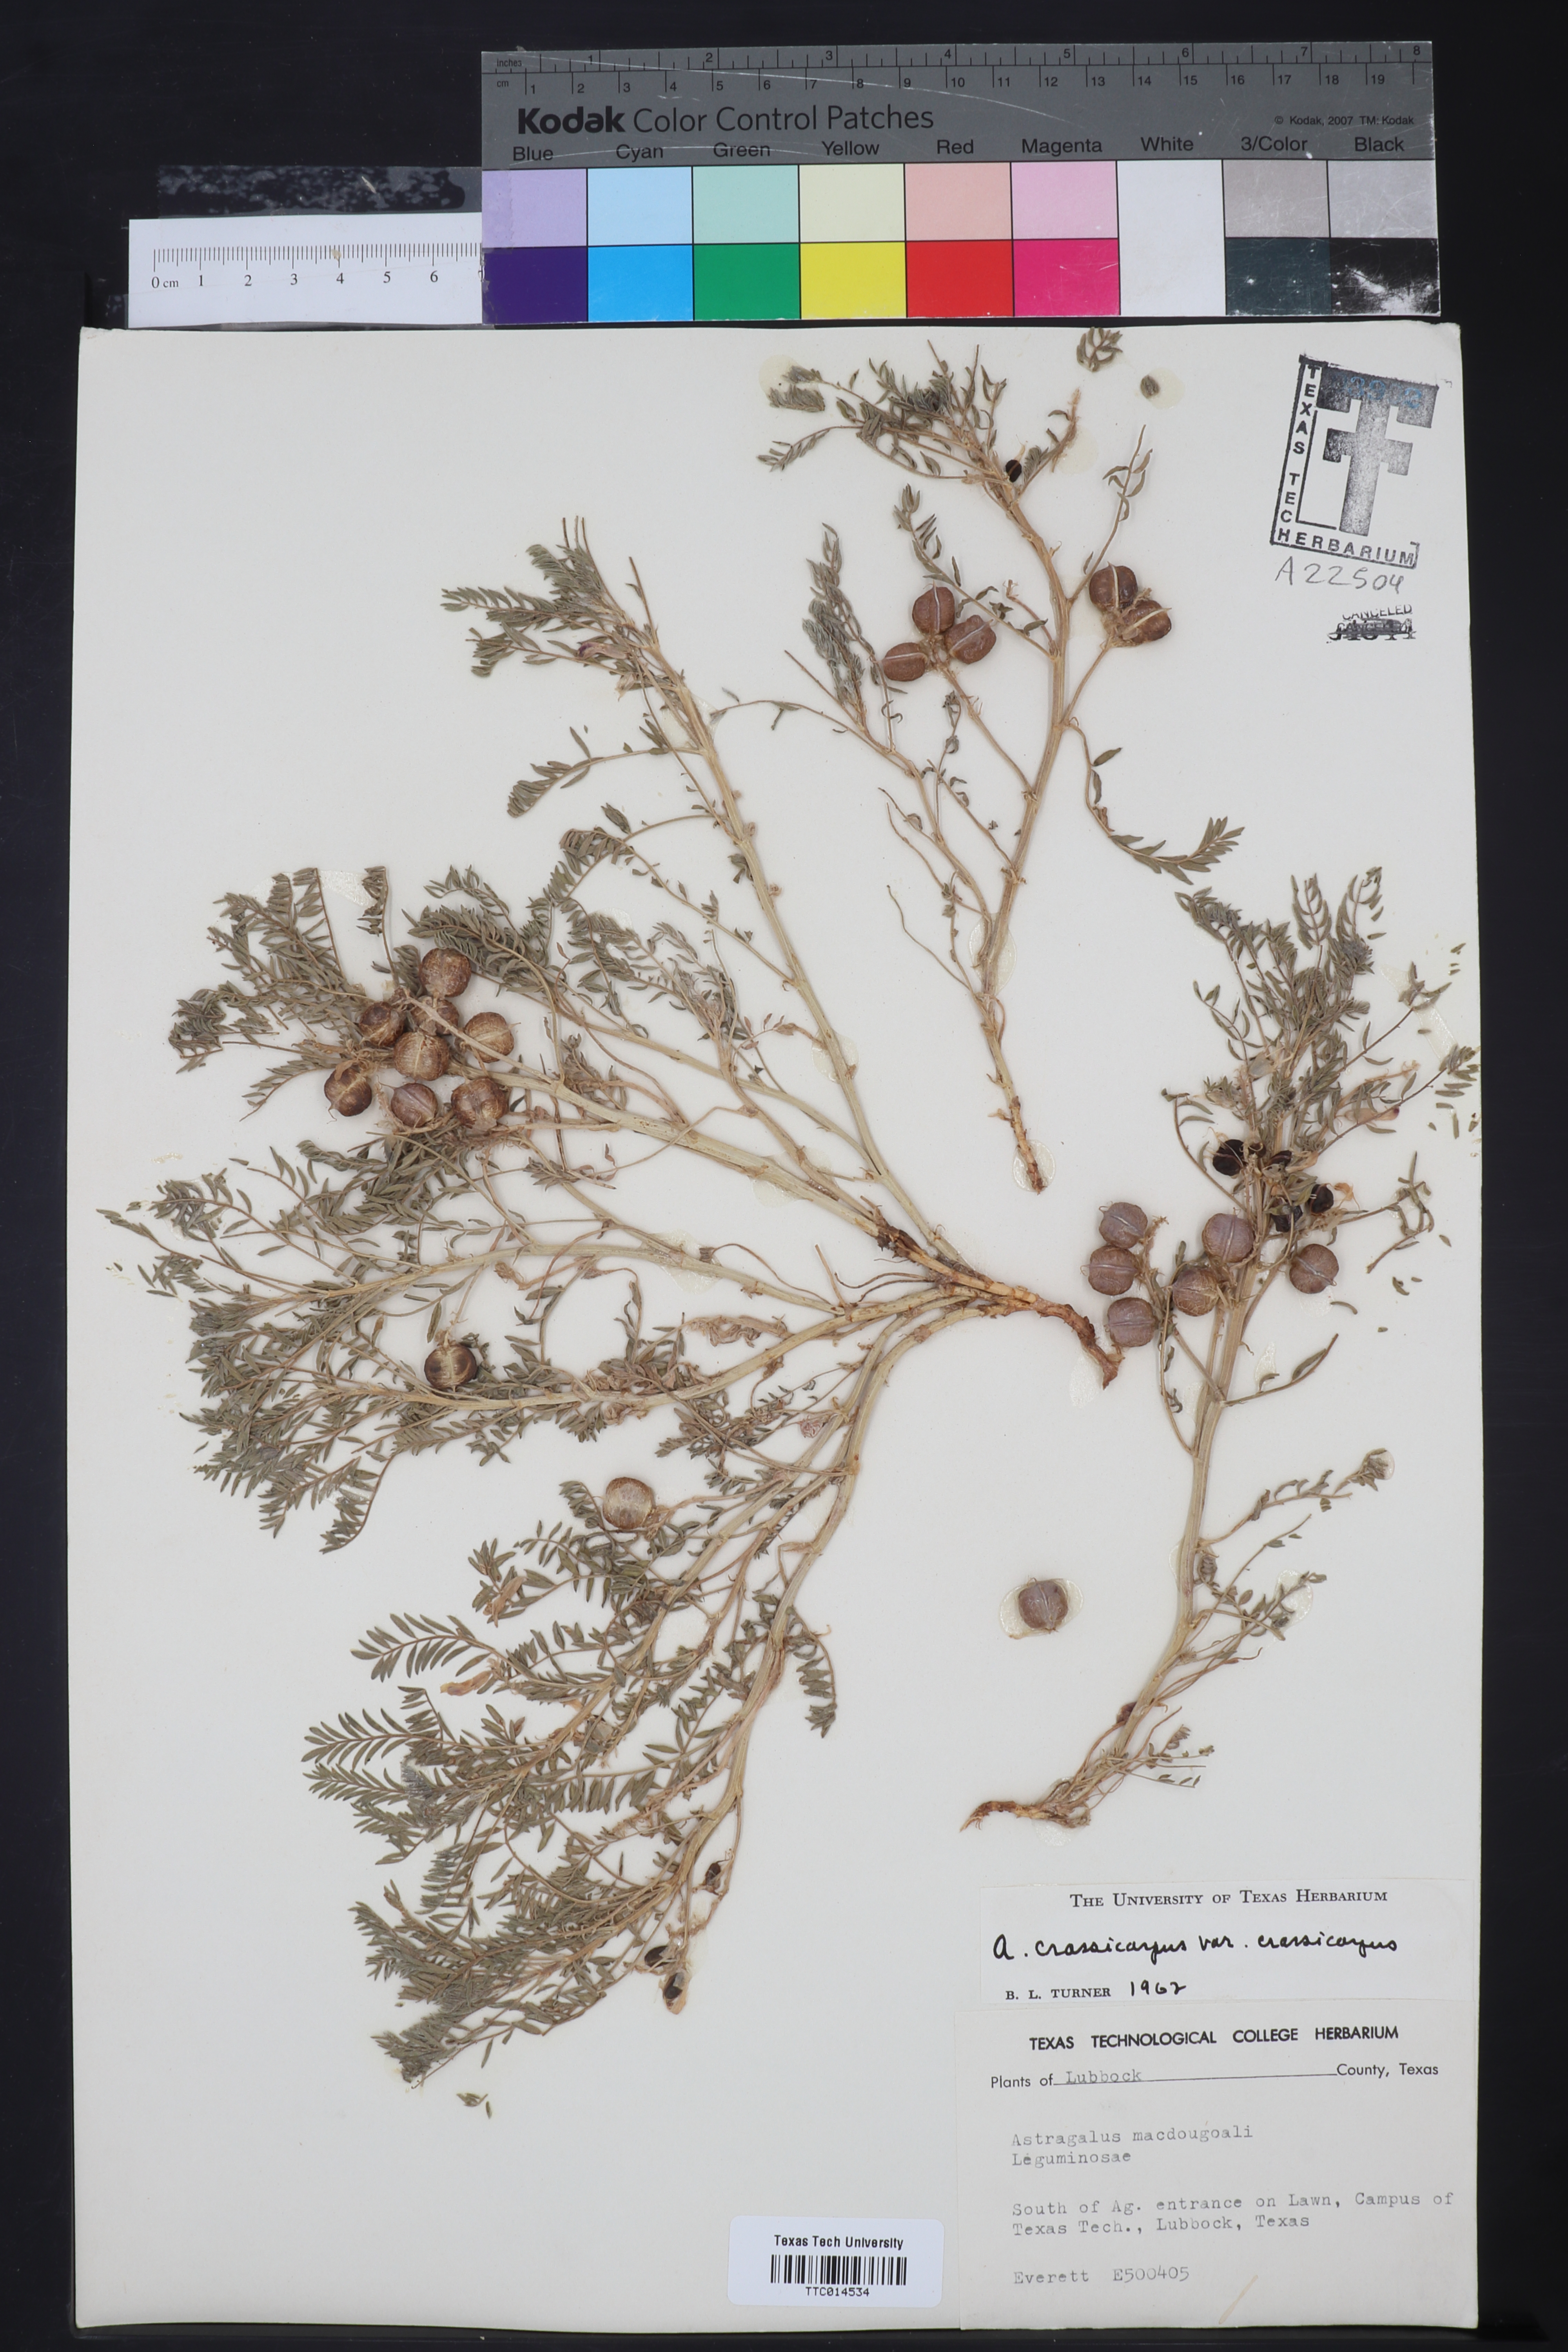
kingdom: Plantae
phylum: Tracheophyta
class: Magnoliopsida
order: Fabales
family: Fabaceae
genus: Astragalus
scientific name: Astragalus crassicarpus
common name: Ground-plum milk-vetch
